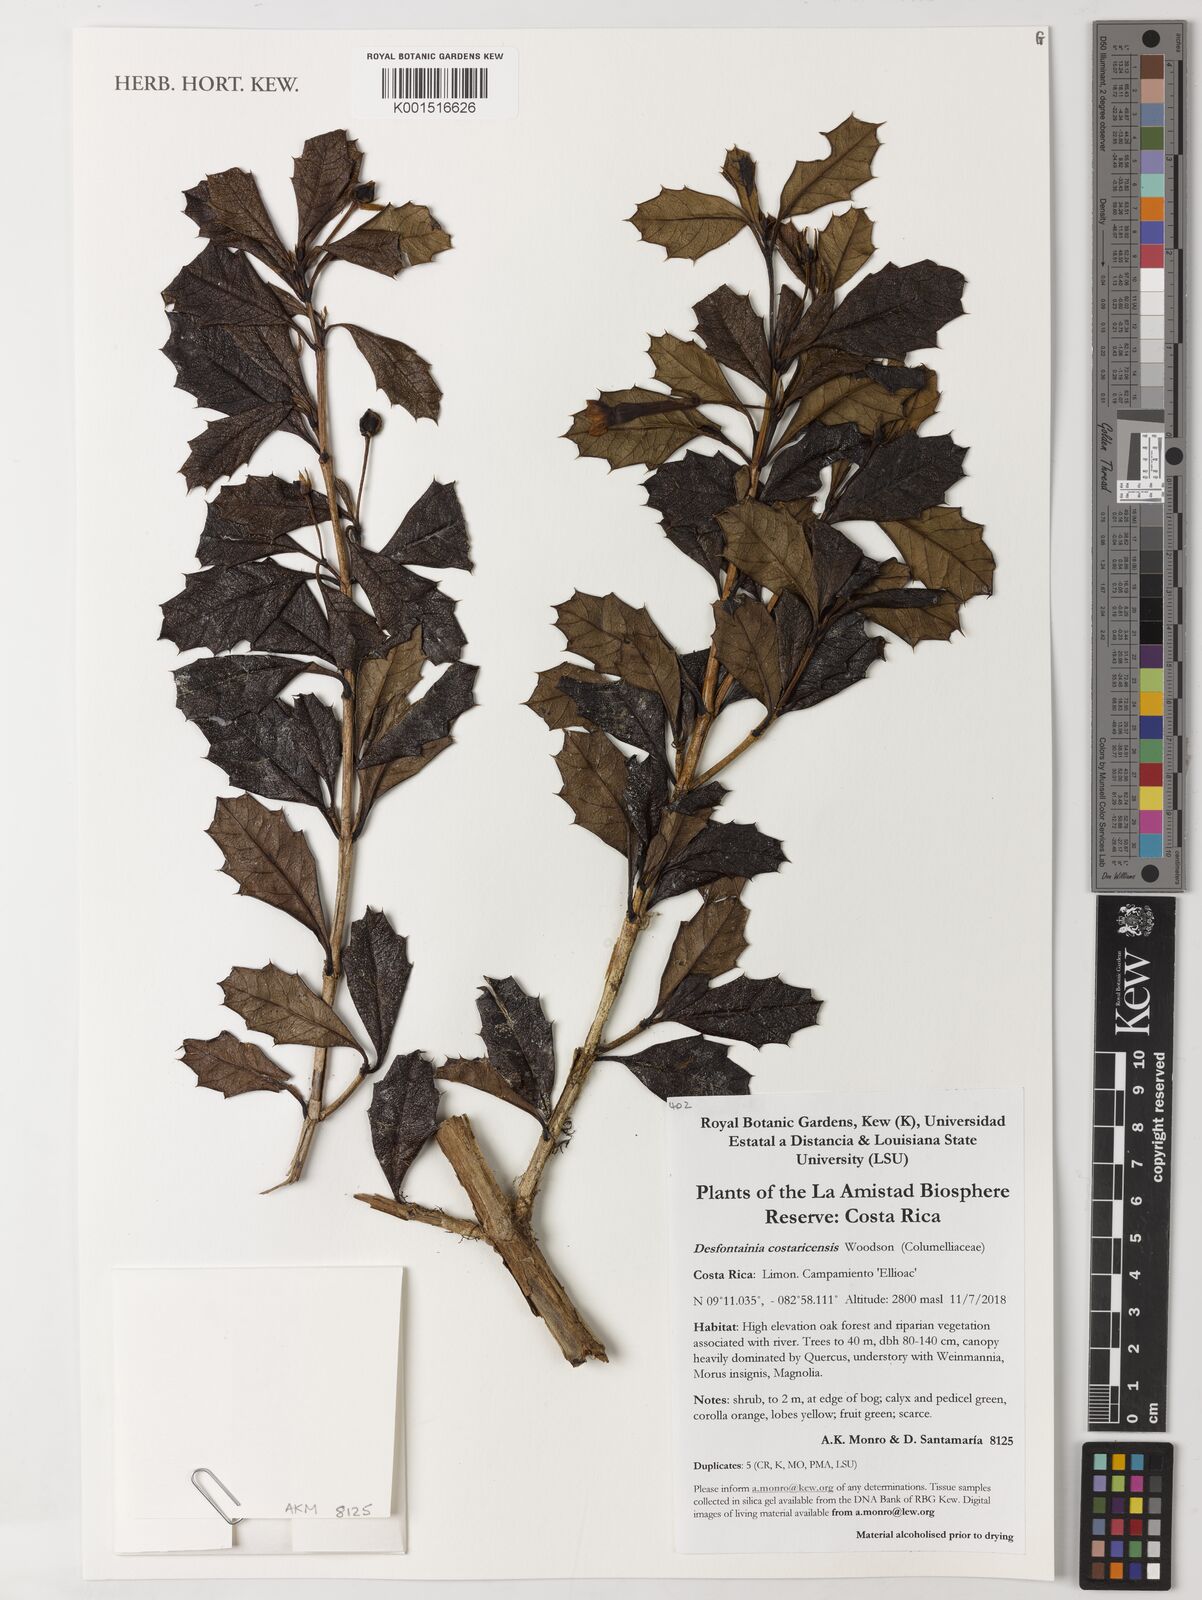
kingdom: Plantae
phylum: Tracheophyta
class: Magnoliopsida
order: Bruniales
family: Columelliaceae
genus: Desfontainia
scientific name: Desfontainia splendens
